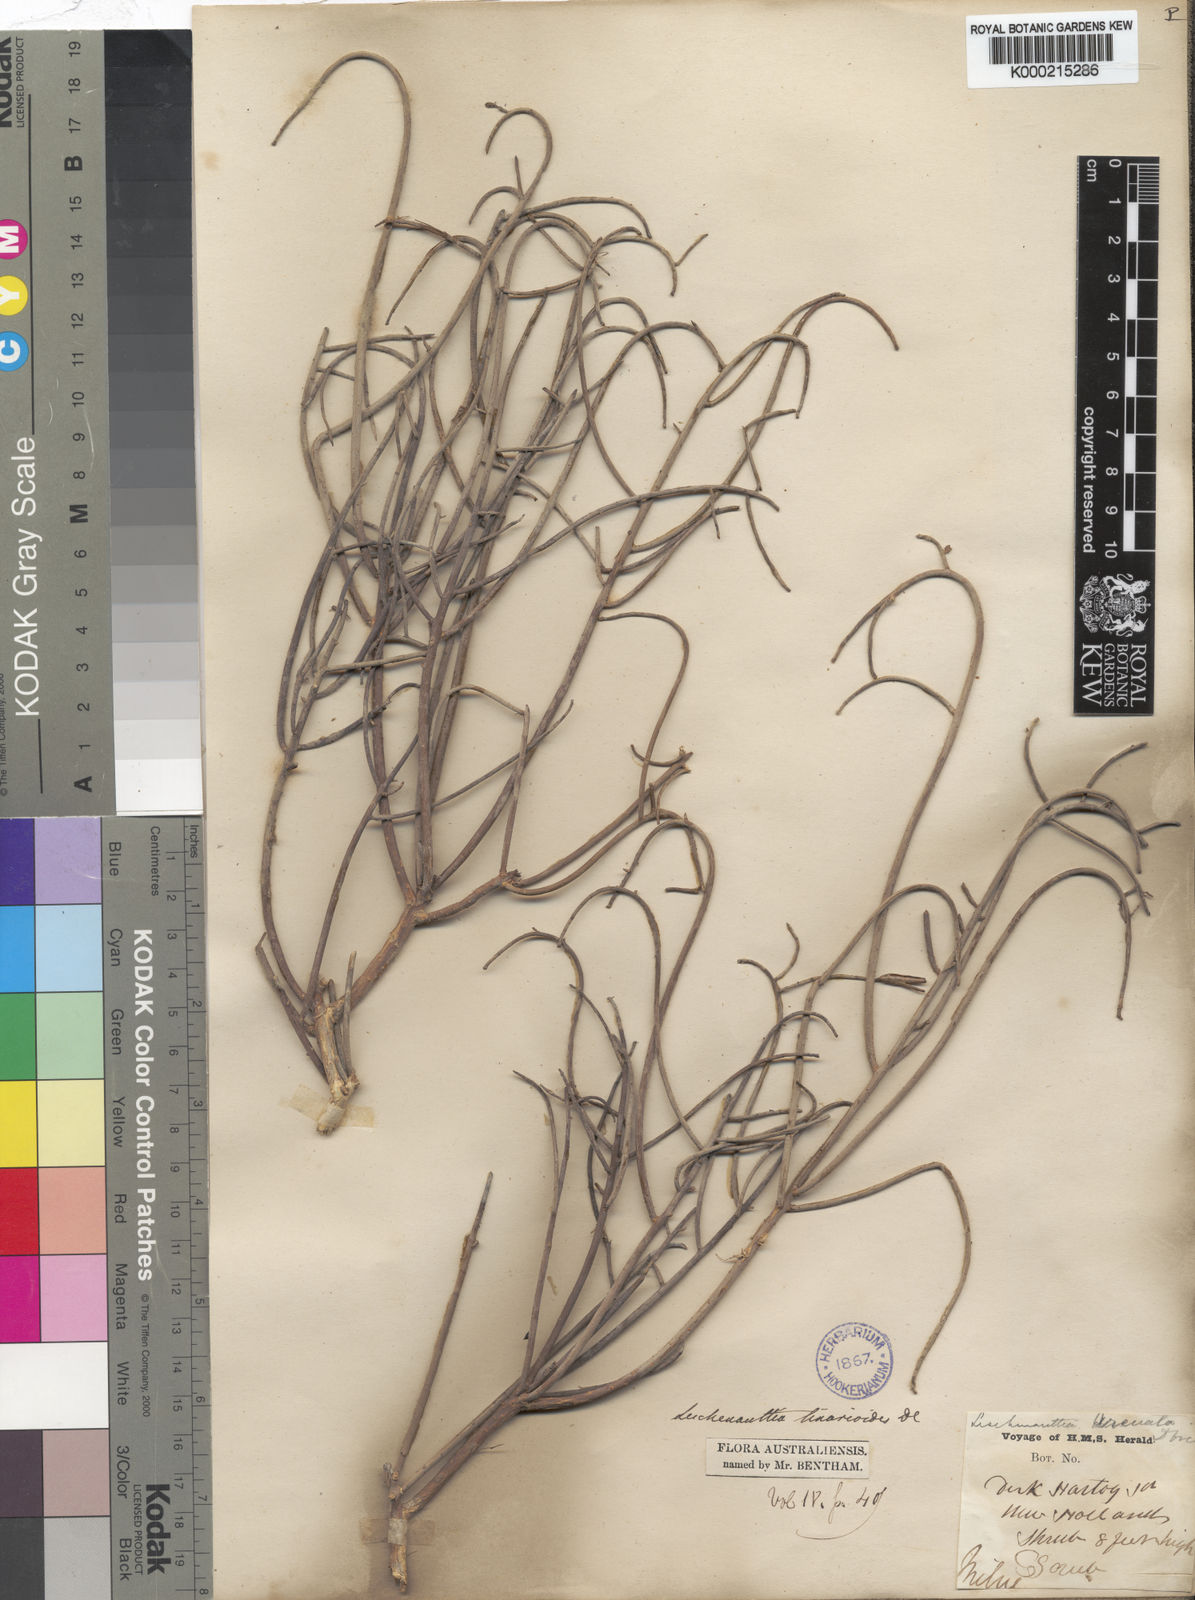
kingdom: Plantae
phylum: Tracheophyta
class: Magnoliopsida
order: Asterales
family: Goodeniaceae
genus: Leschenaultia
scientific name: Leschenaultia
